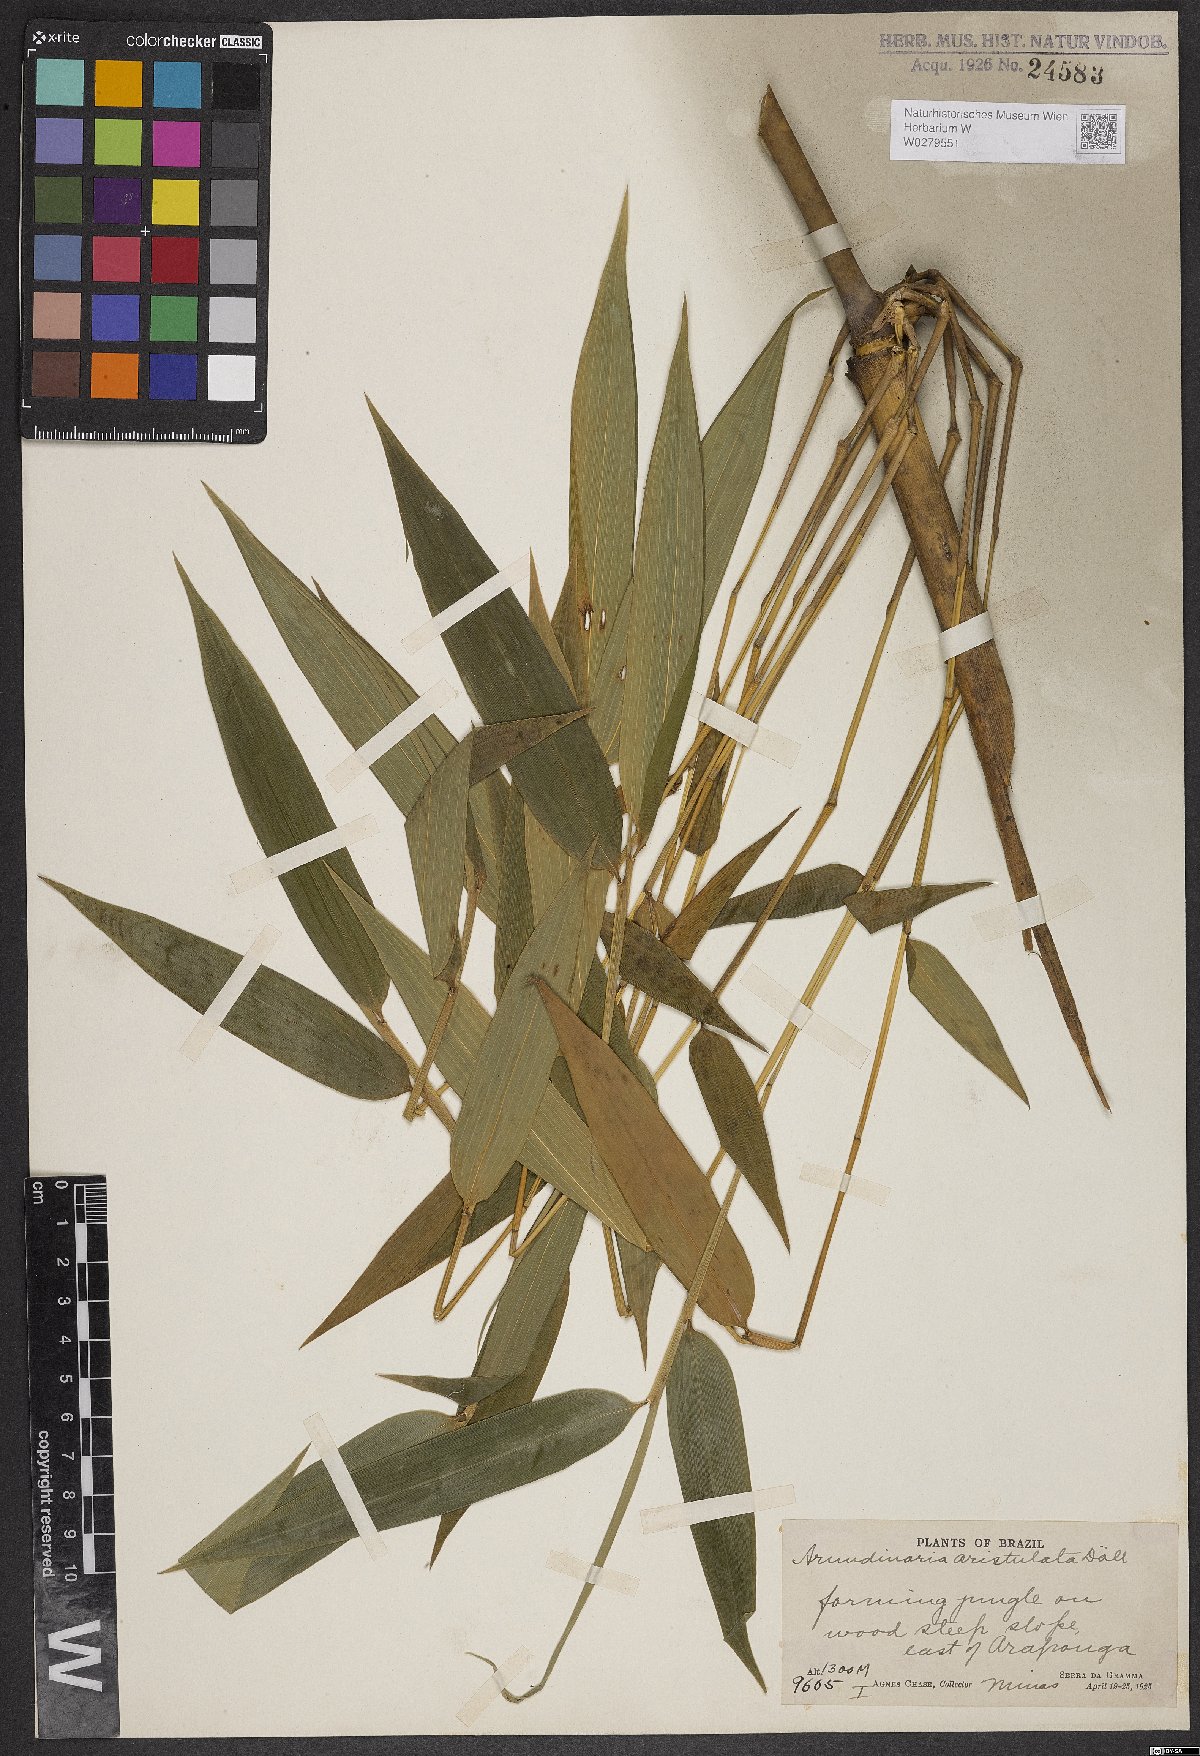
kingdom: Plantae
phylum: Tracheophyta
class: Liliopsida
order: Poales
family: Poaceae
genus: Aulonemia
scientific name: Aulonemia aristulata
